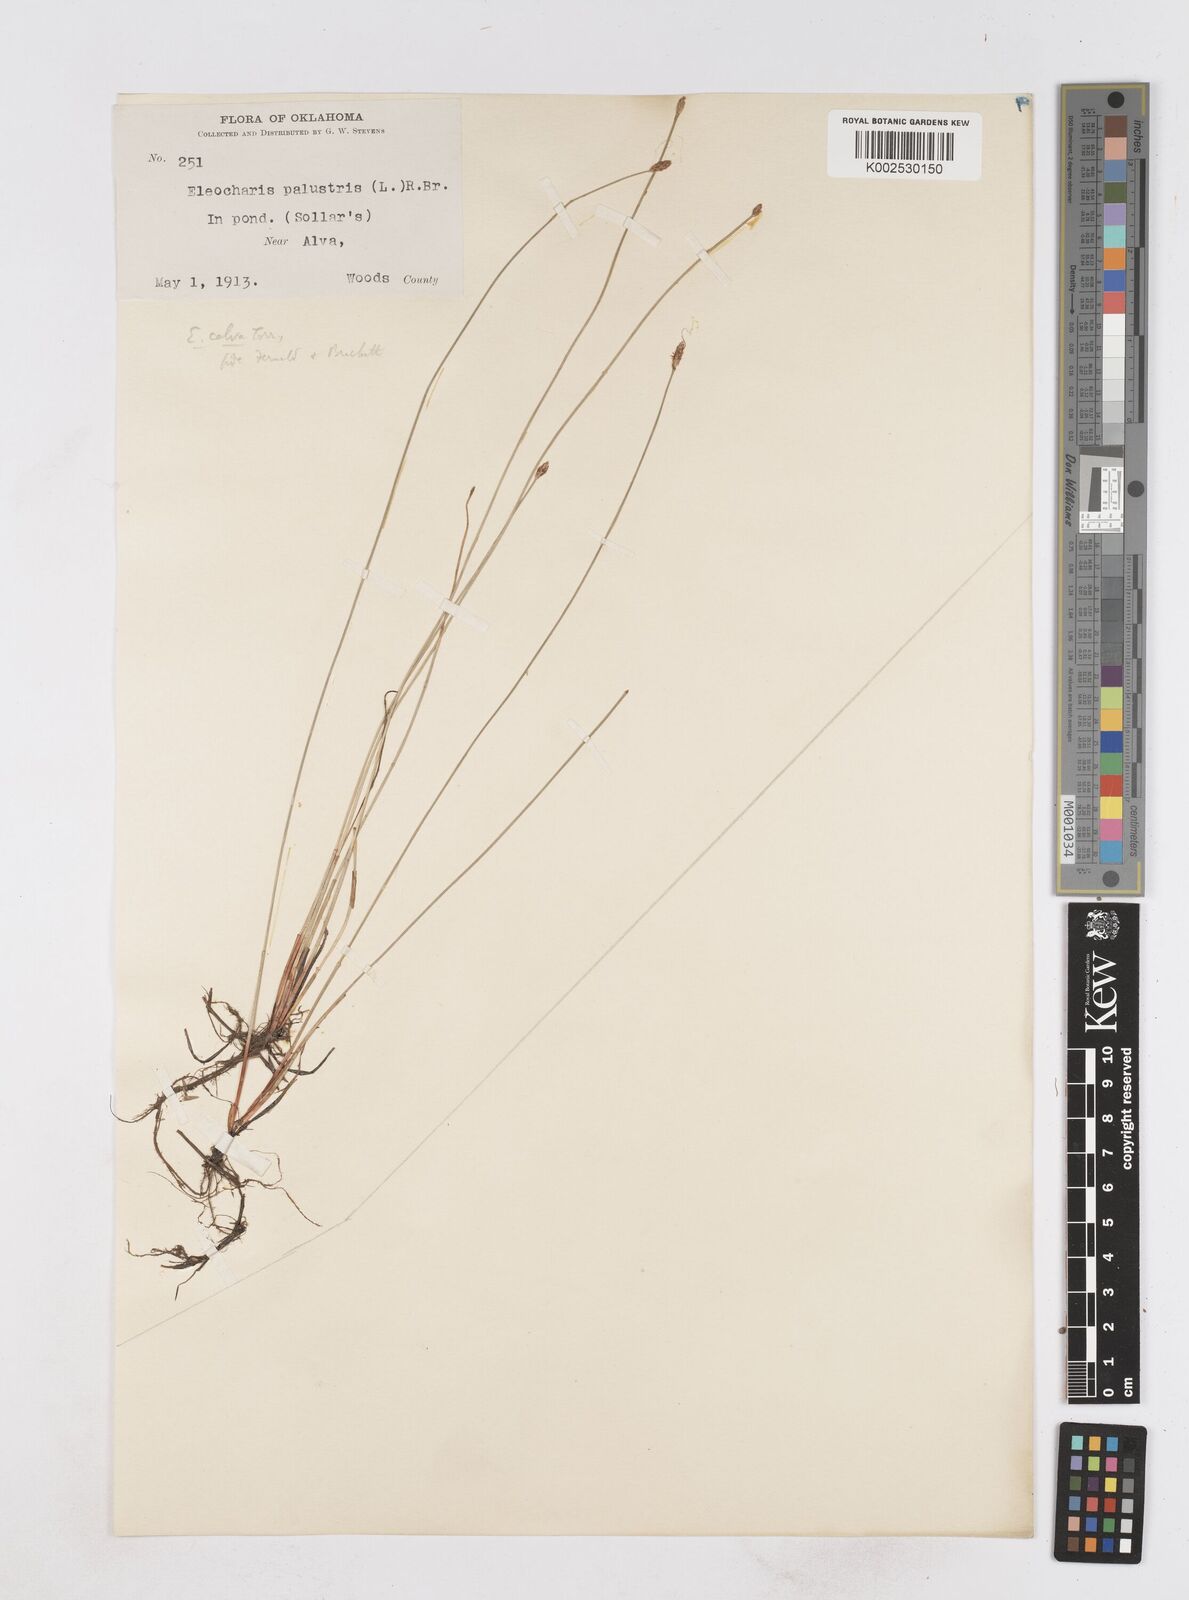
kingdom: Plantae
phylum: Tracheophyta
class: Liliopsida
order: Poales
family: Cyperaceae
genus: Eleocharis
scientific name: Eleocharis erythropoda
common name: Bald spikerush
